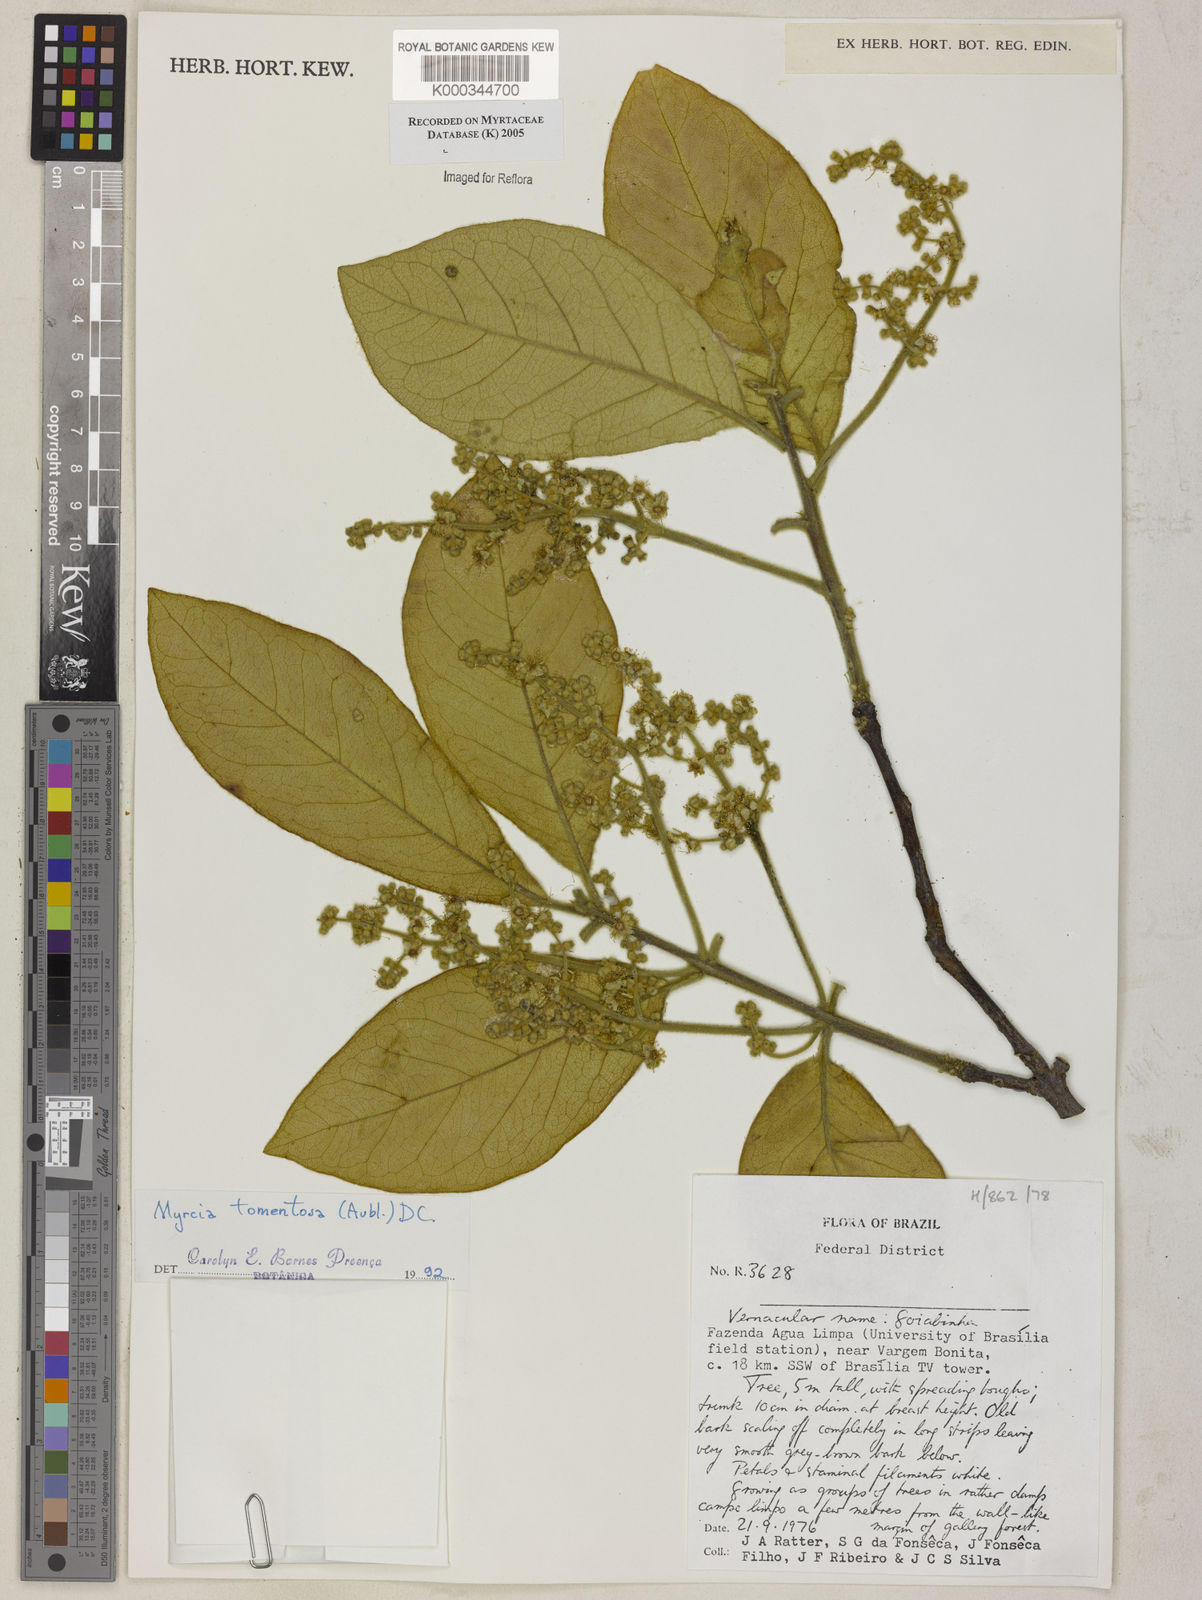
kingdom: Plantae
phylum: Tracheophyta
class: Magnoliopsida
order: Myrtales
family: Myrtaceae
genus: Myrcia
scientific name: Myrcia tomentosa
